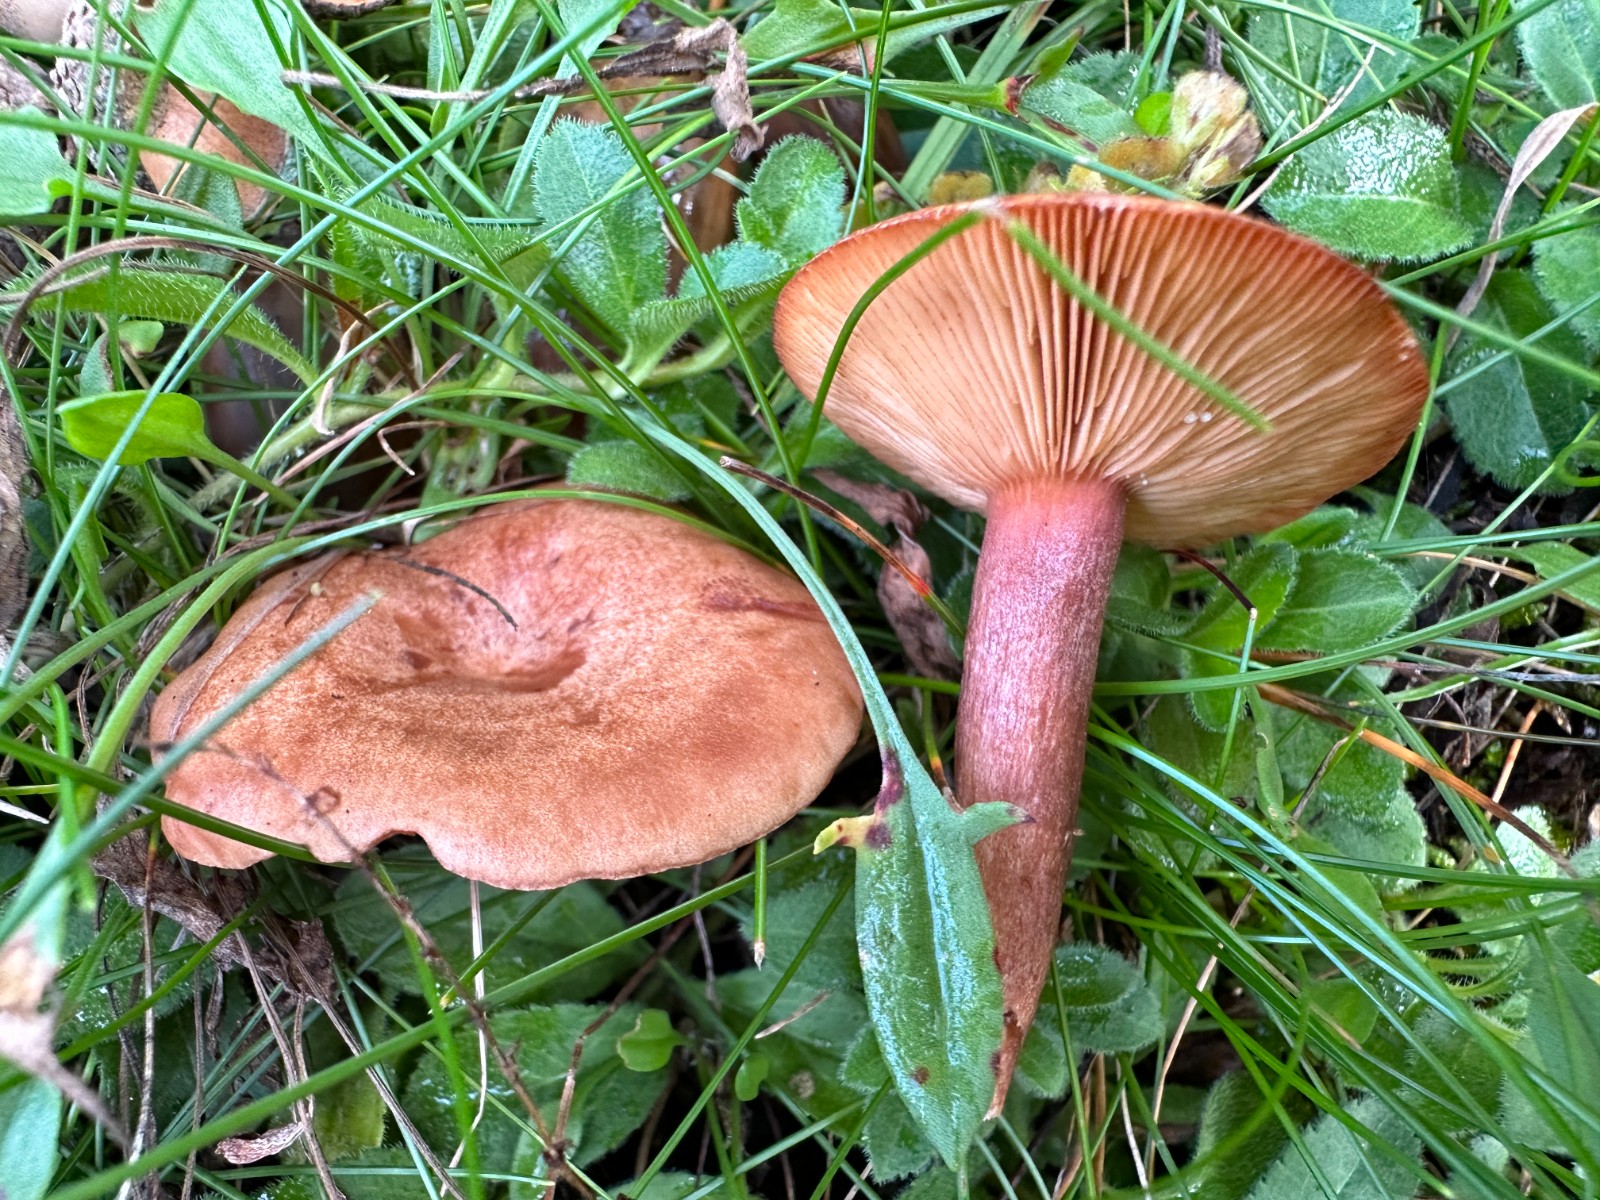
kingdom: Fungi
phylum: Basidiomycota
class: Agaricomycetes
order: Russulales
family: Russulaceae
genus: Lactarius
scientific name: Lactarius quietus
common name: ege-mælkehat
